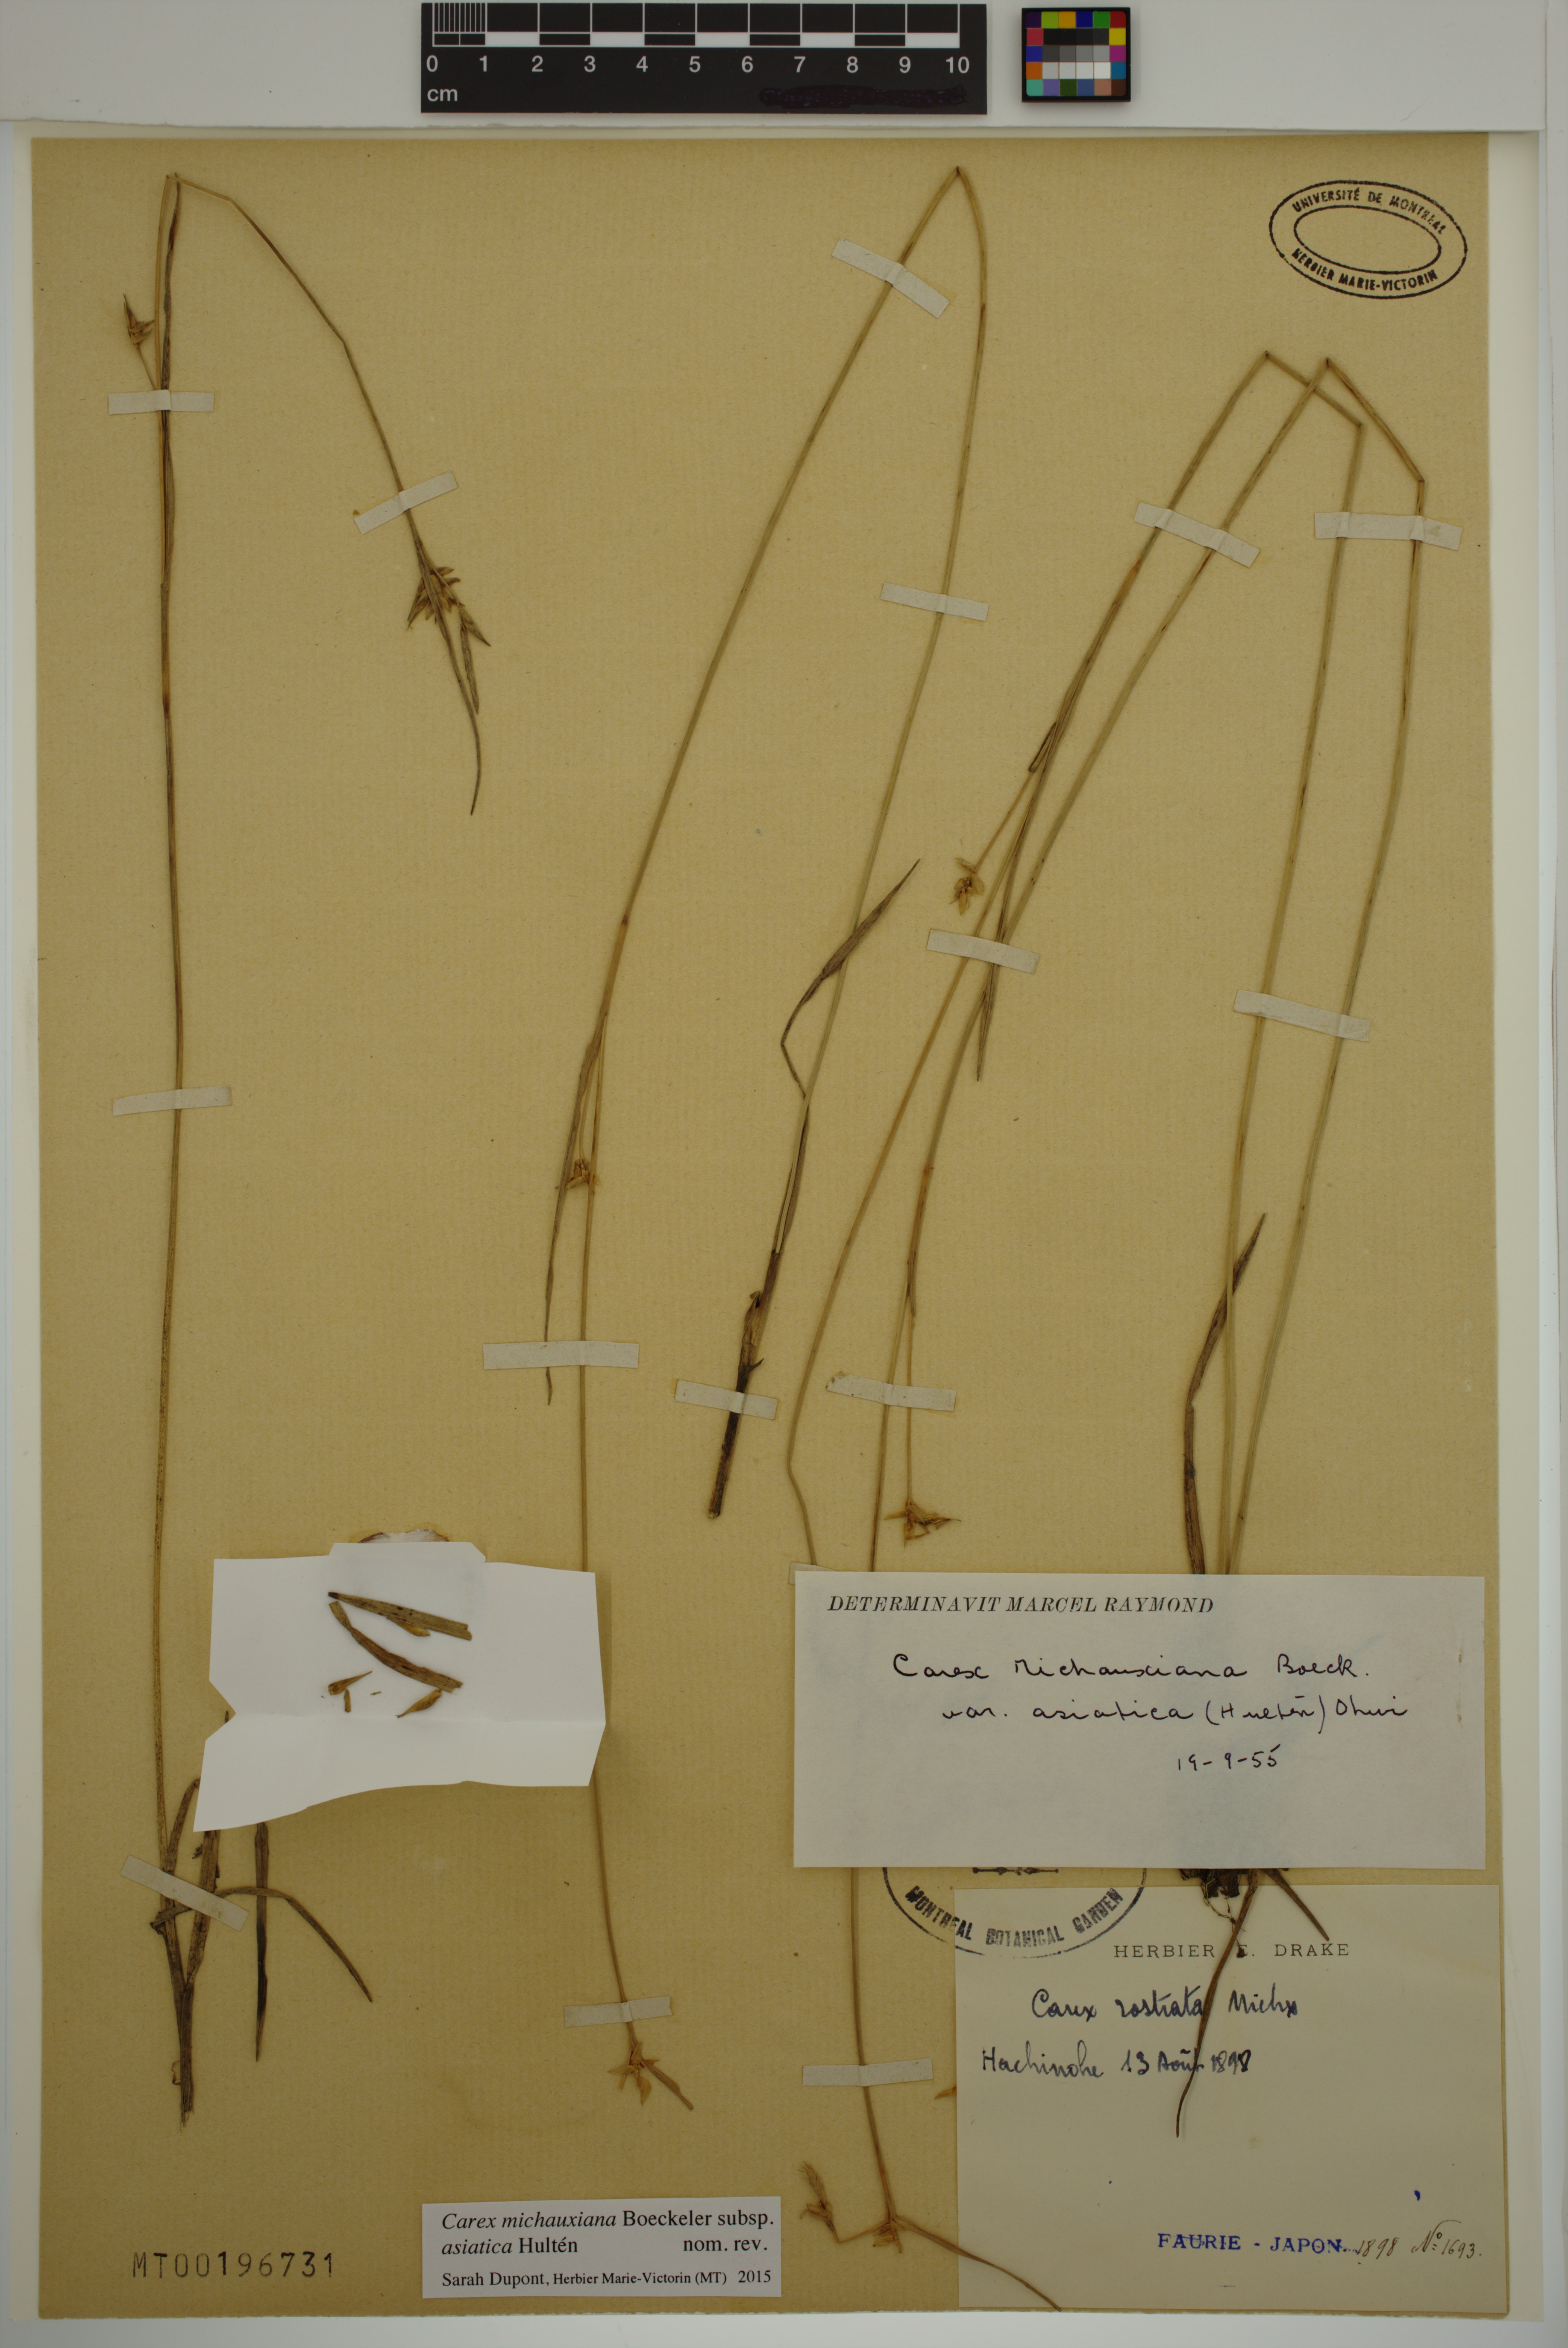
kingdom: Plantae
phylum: Tracheophyta
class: Liliopsida
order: Poales
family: Cyperaceae
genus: Carex
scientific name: Carex michauxiana
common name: Michaux's sedge
